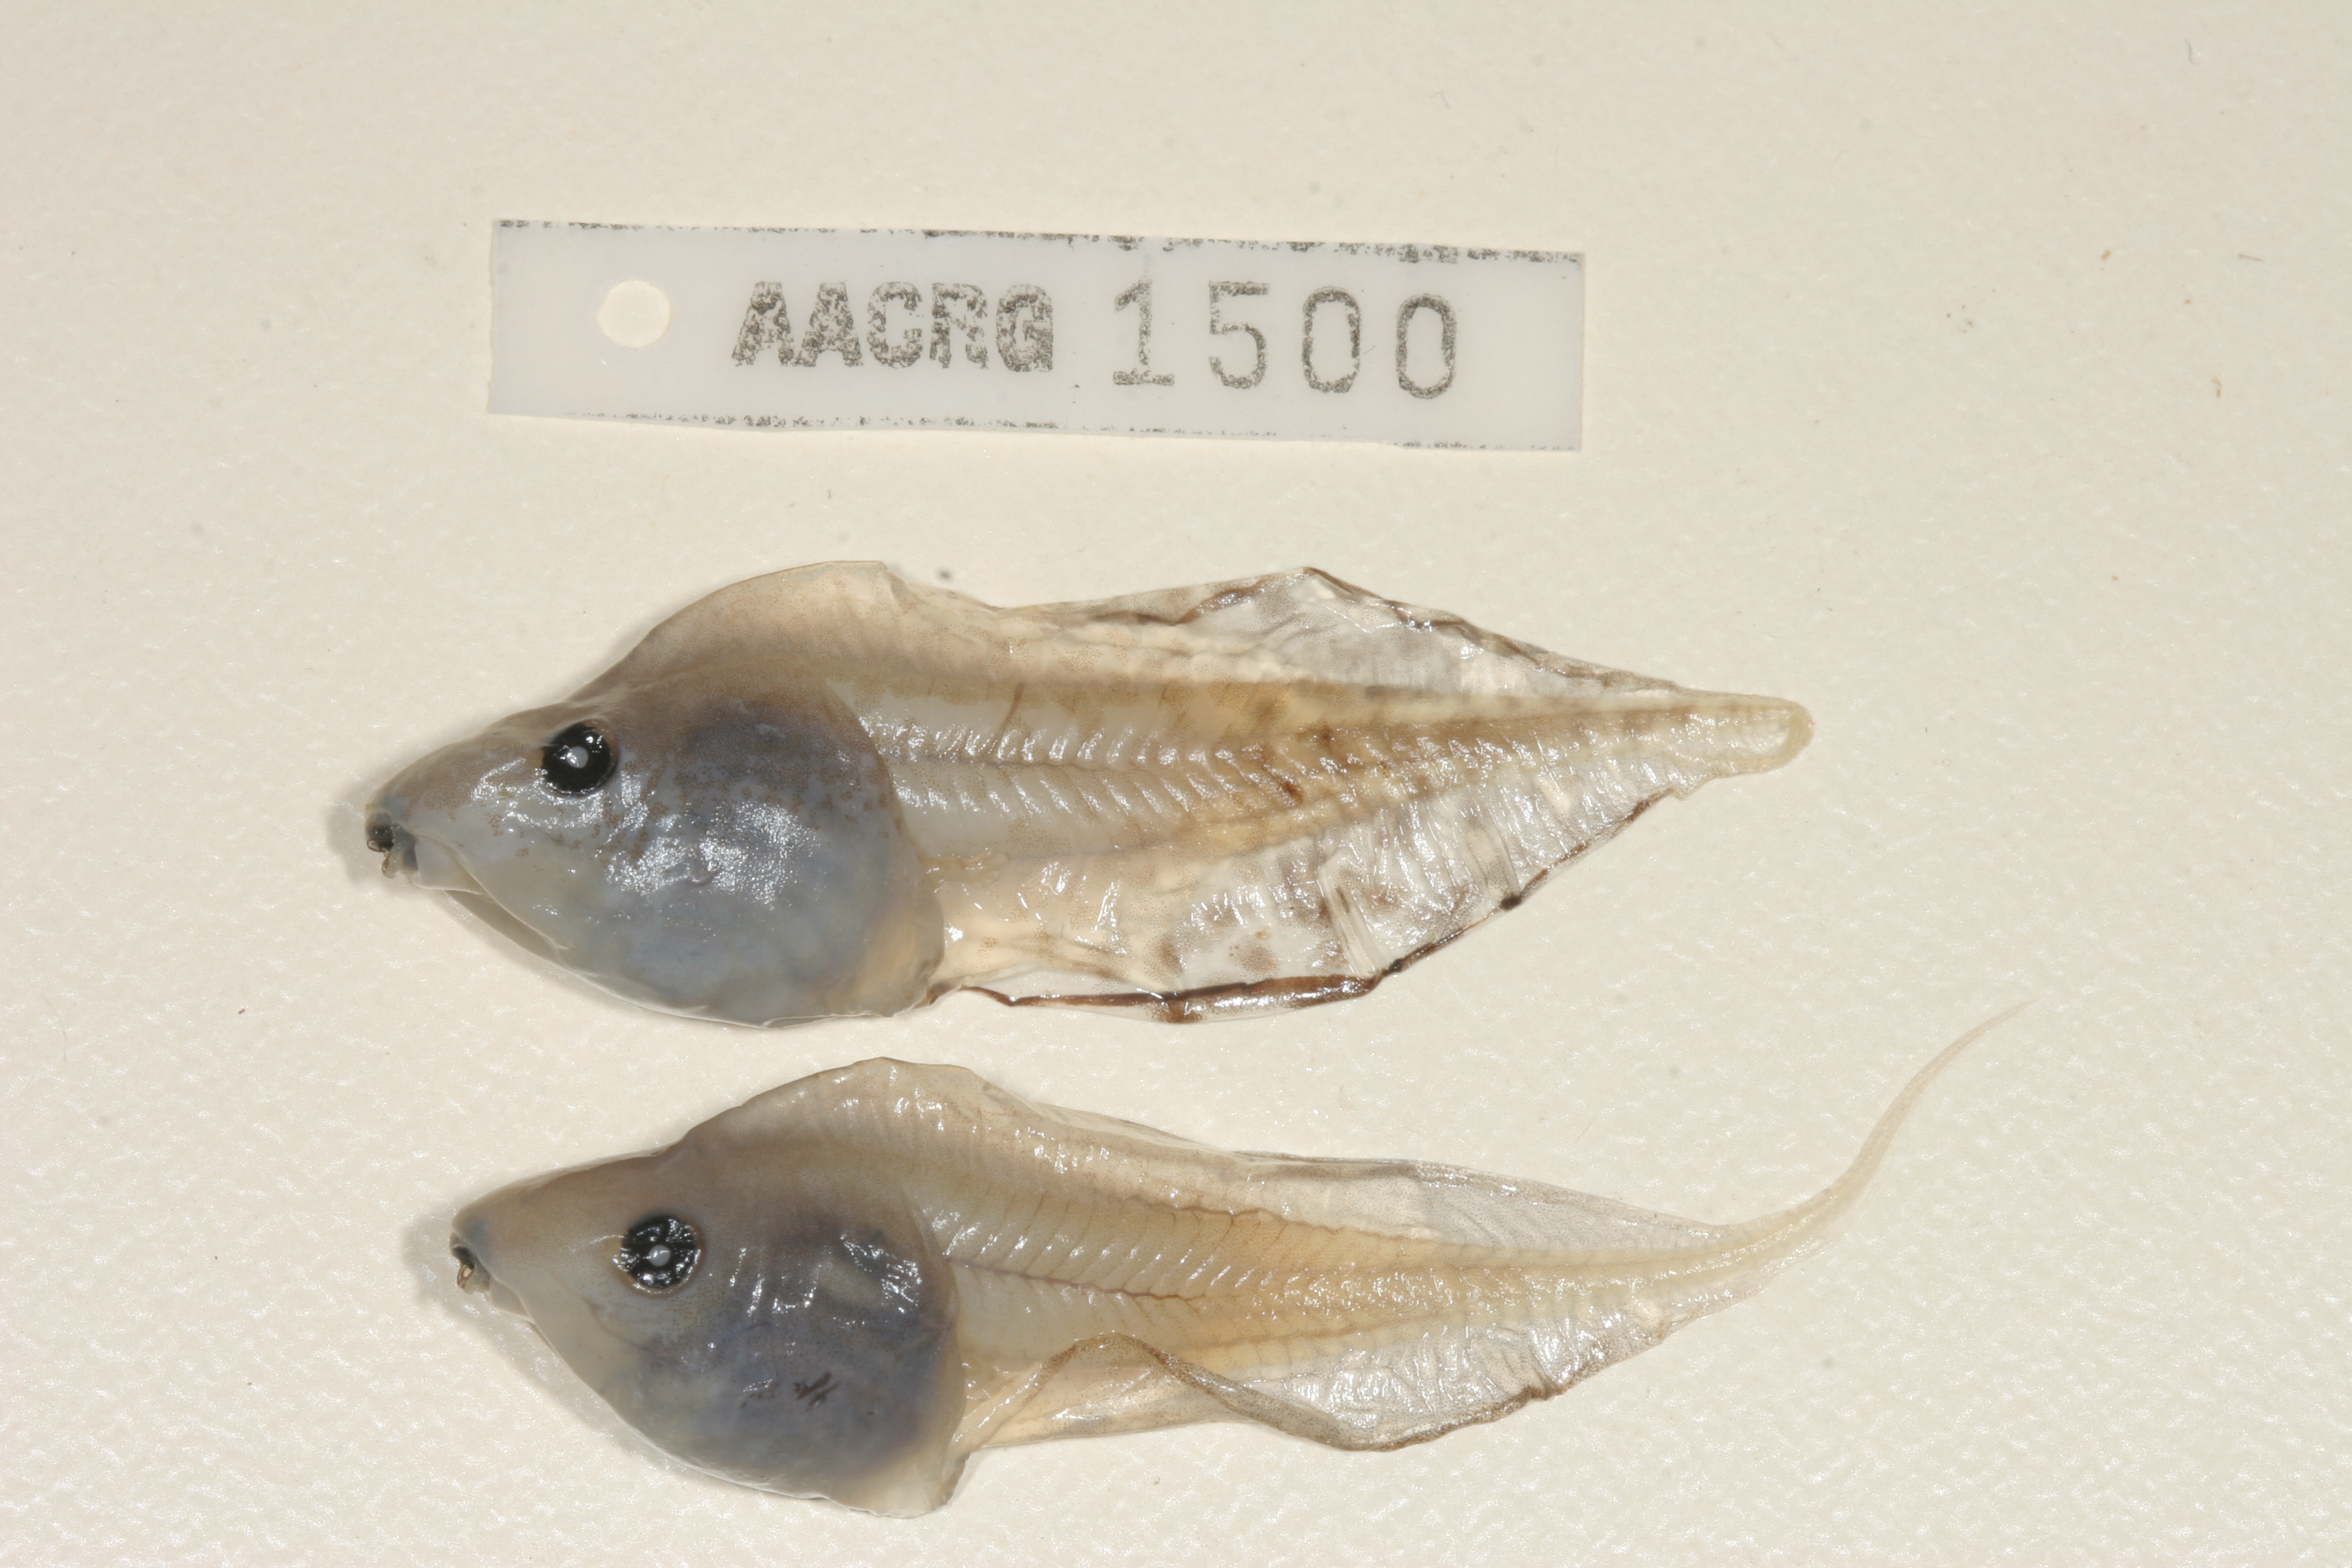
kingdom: Animalia
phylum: Chordata
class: Amphibia
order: Anura
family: Hyperoliidae
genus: Kassina
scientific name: Kassina senegalensis
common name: Senegal land frog
